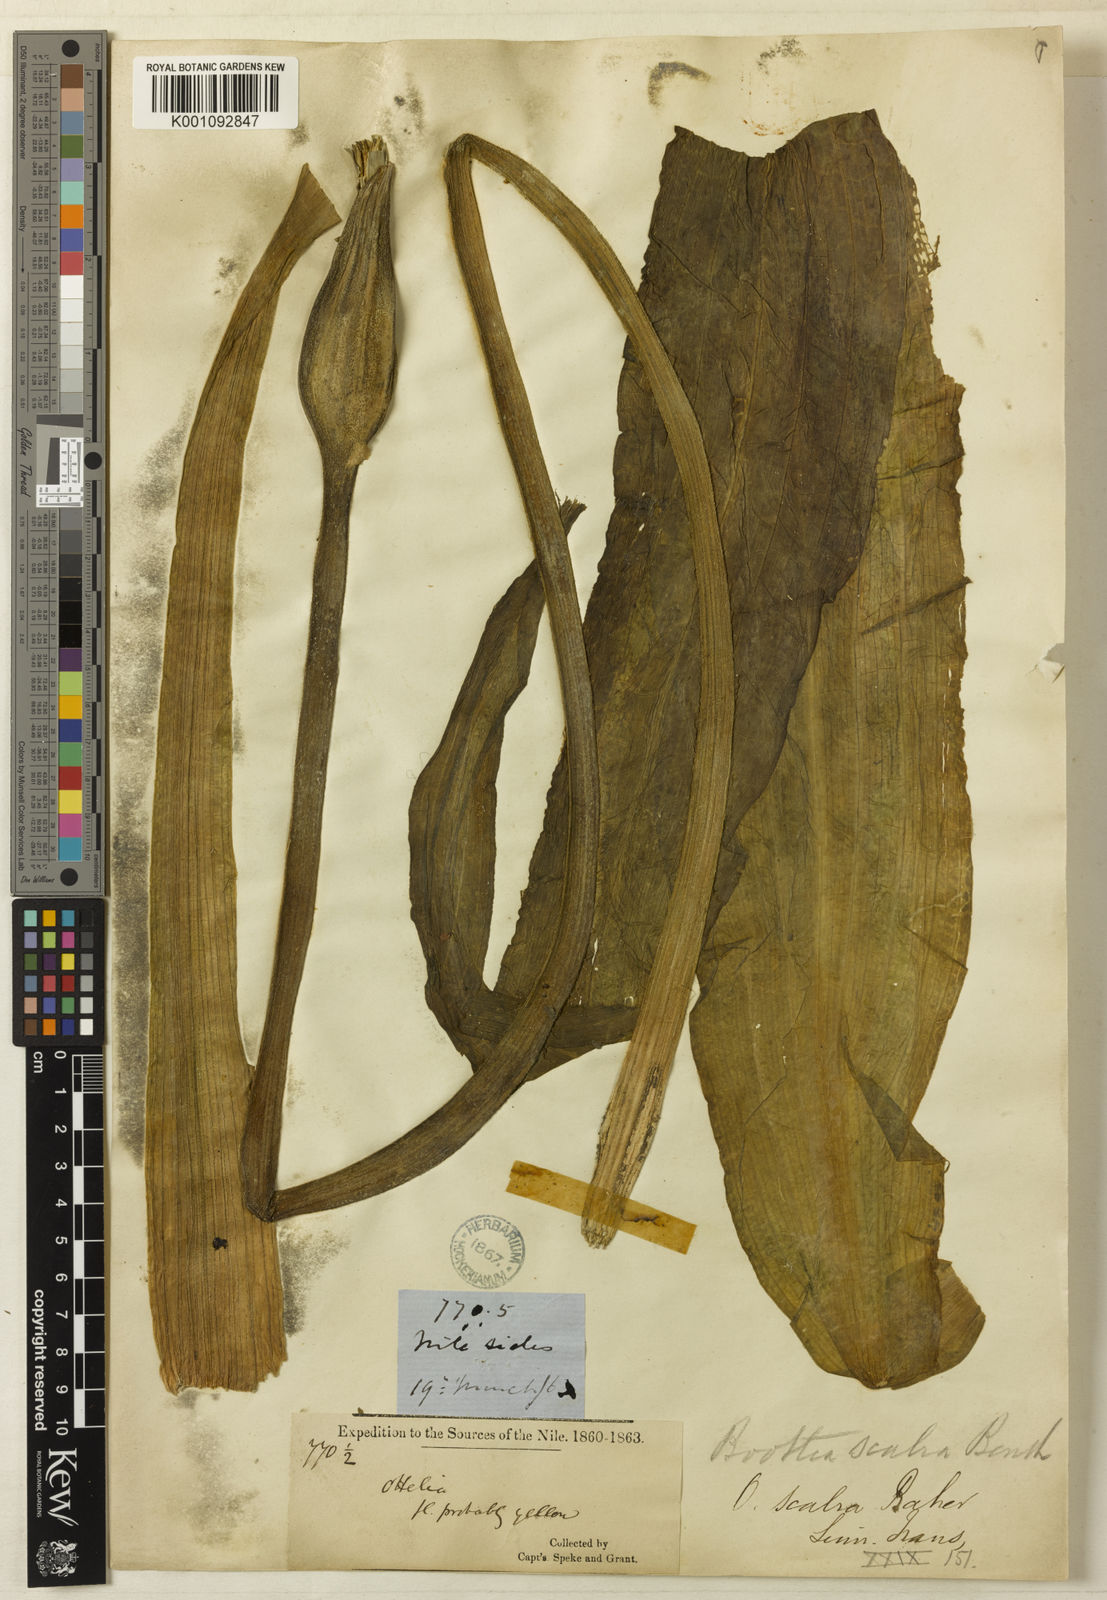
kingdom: Plantae
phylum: Tracheophyta
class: Liliopsida
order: Alismatales
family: Hydrocharitaceae
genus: Ottelia
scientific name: Ottelia scabra
